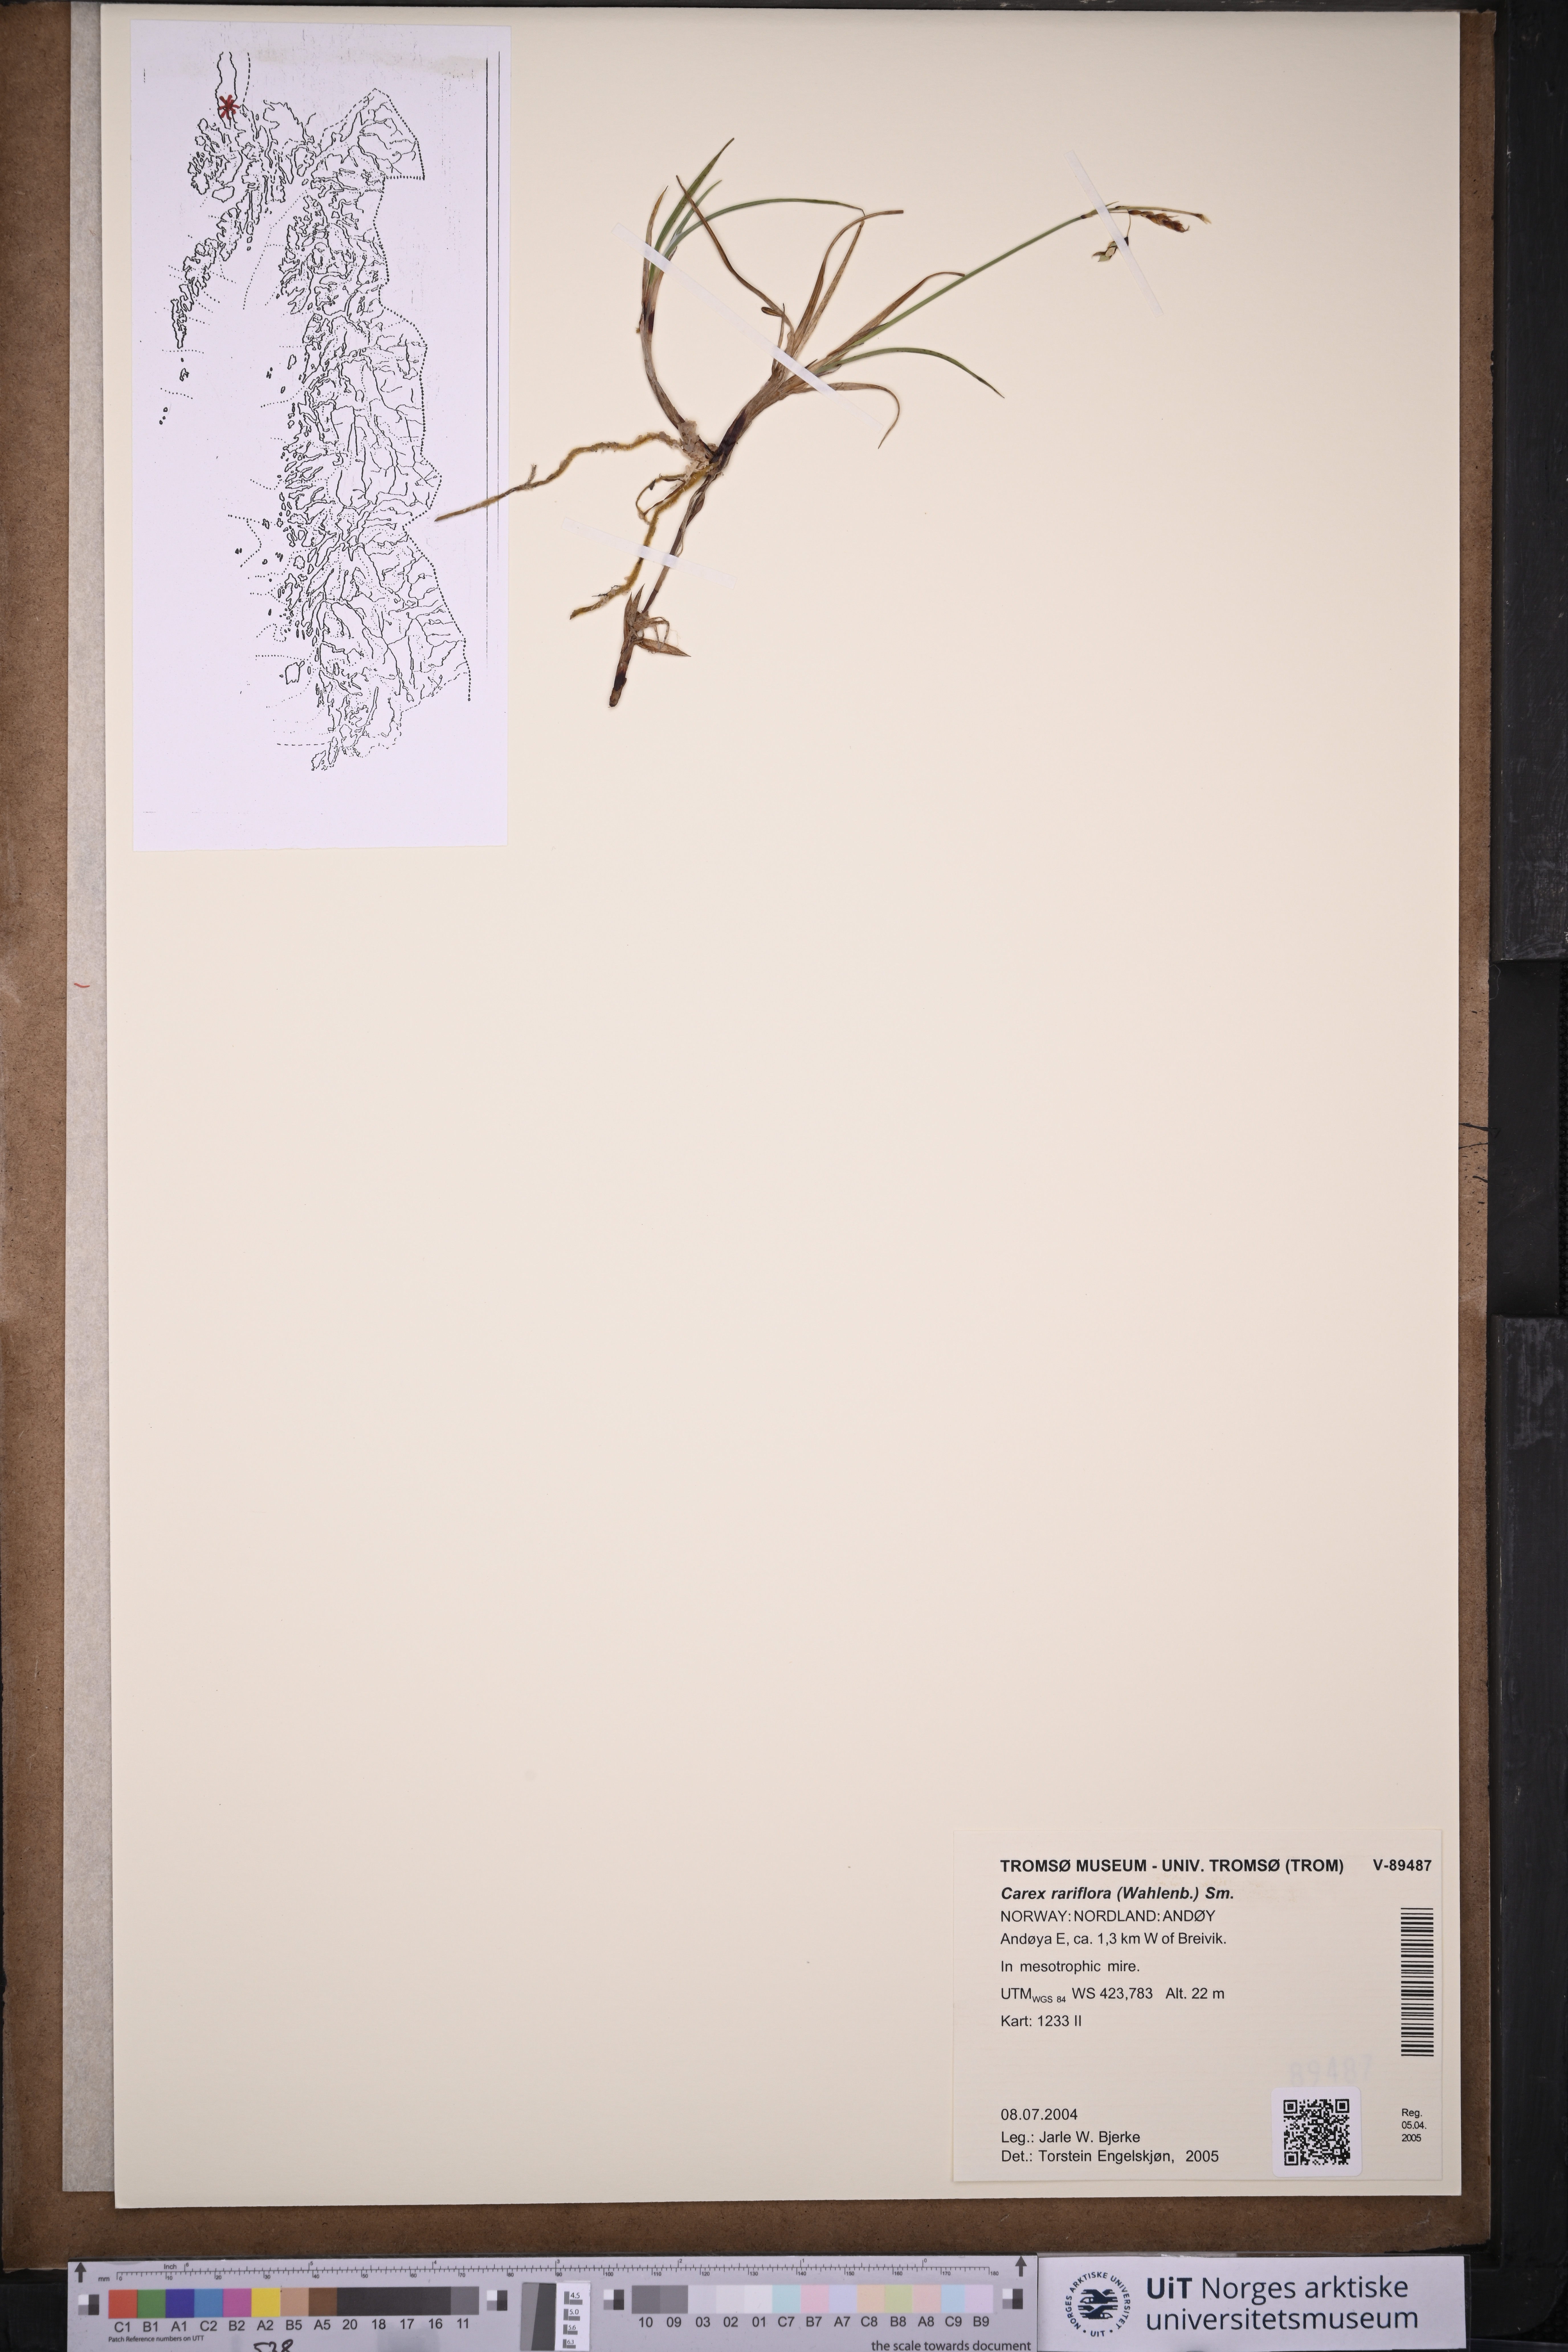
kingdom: Plantae
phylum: Tracheophyta
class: Liliopsida
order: Poales
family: Cyperaceae
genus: Carex
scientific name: Carex rariflora
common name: Loose-flowered alpine sedge
